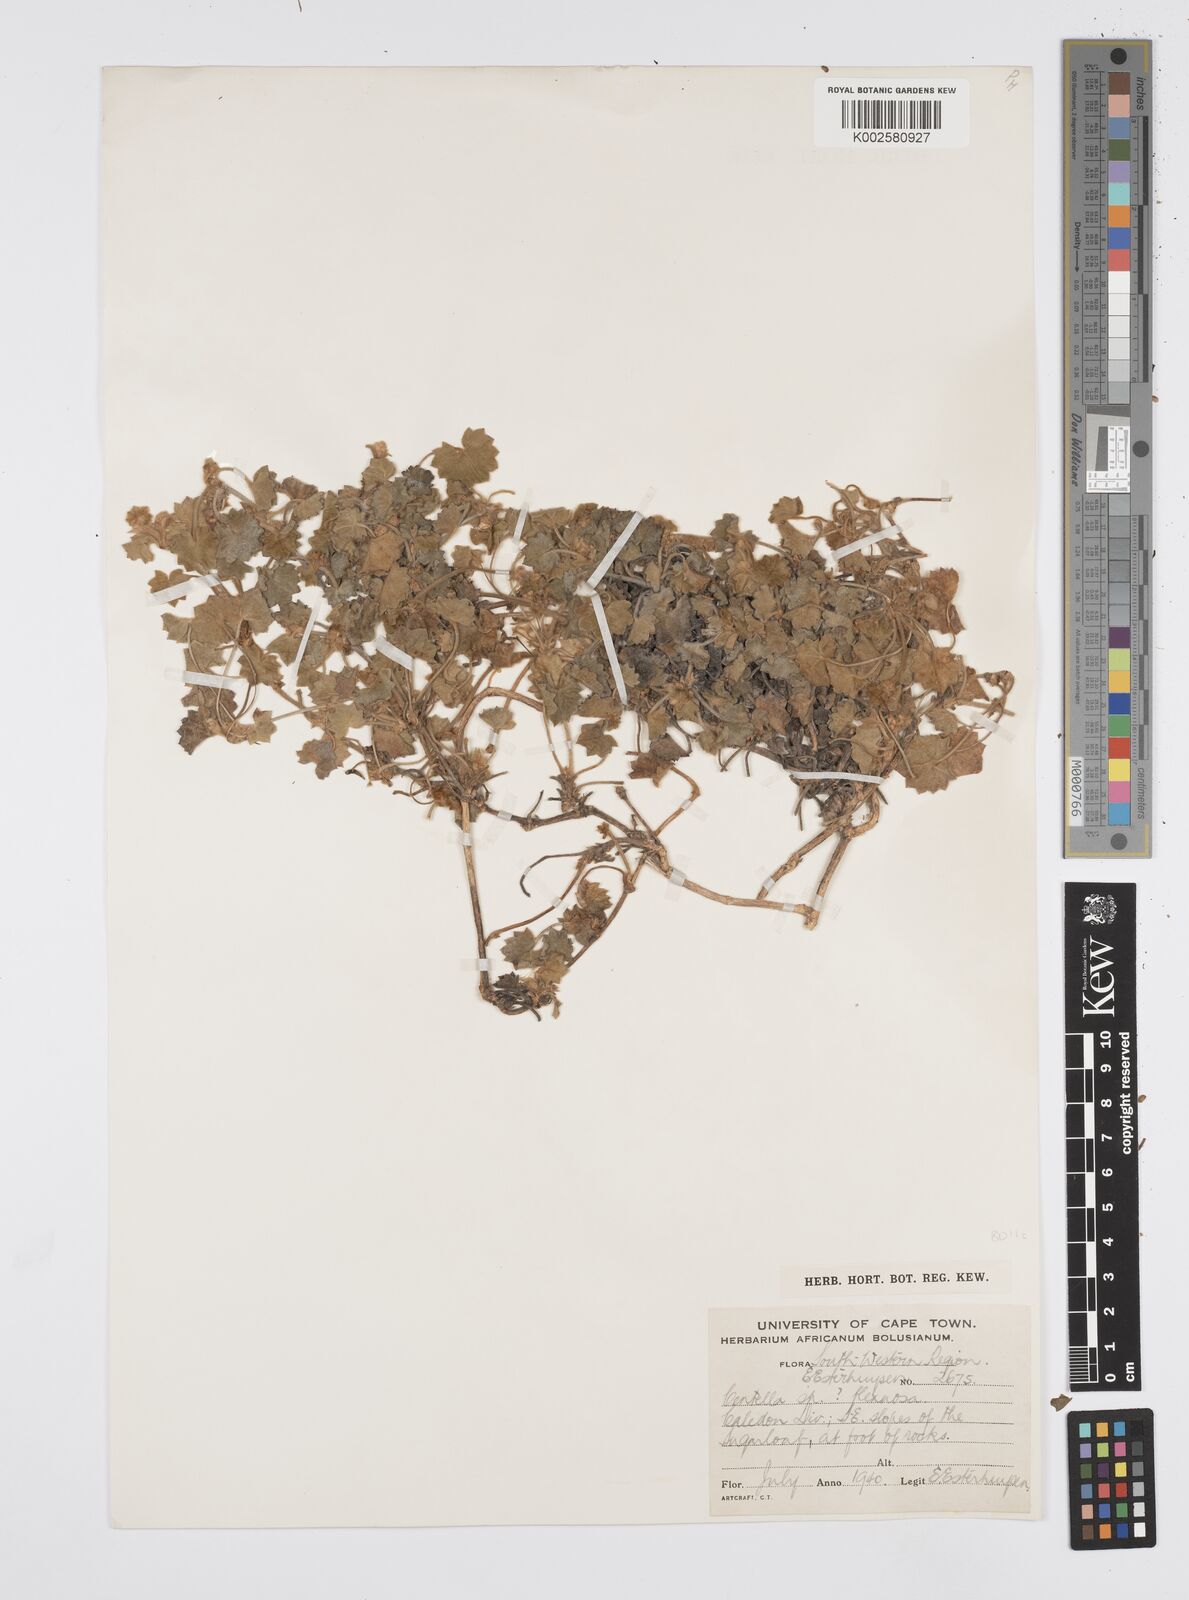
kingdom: Plantae
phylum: Tracheophyta
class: Magnoliopsida
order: Apiales
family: Apiaceae
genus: Centella
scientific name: Centella flexuosa
